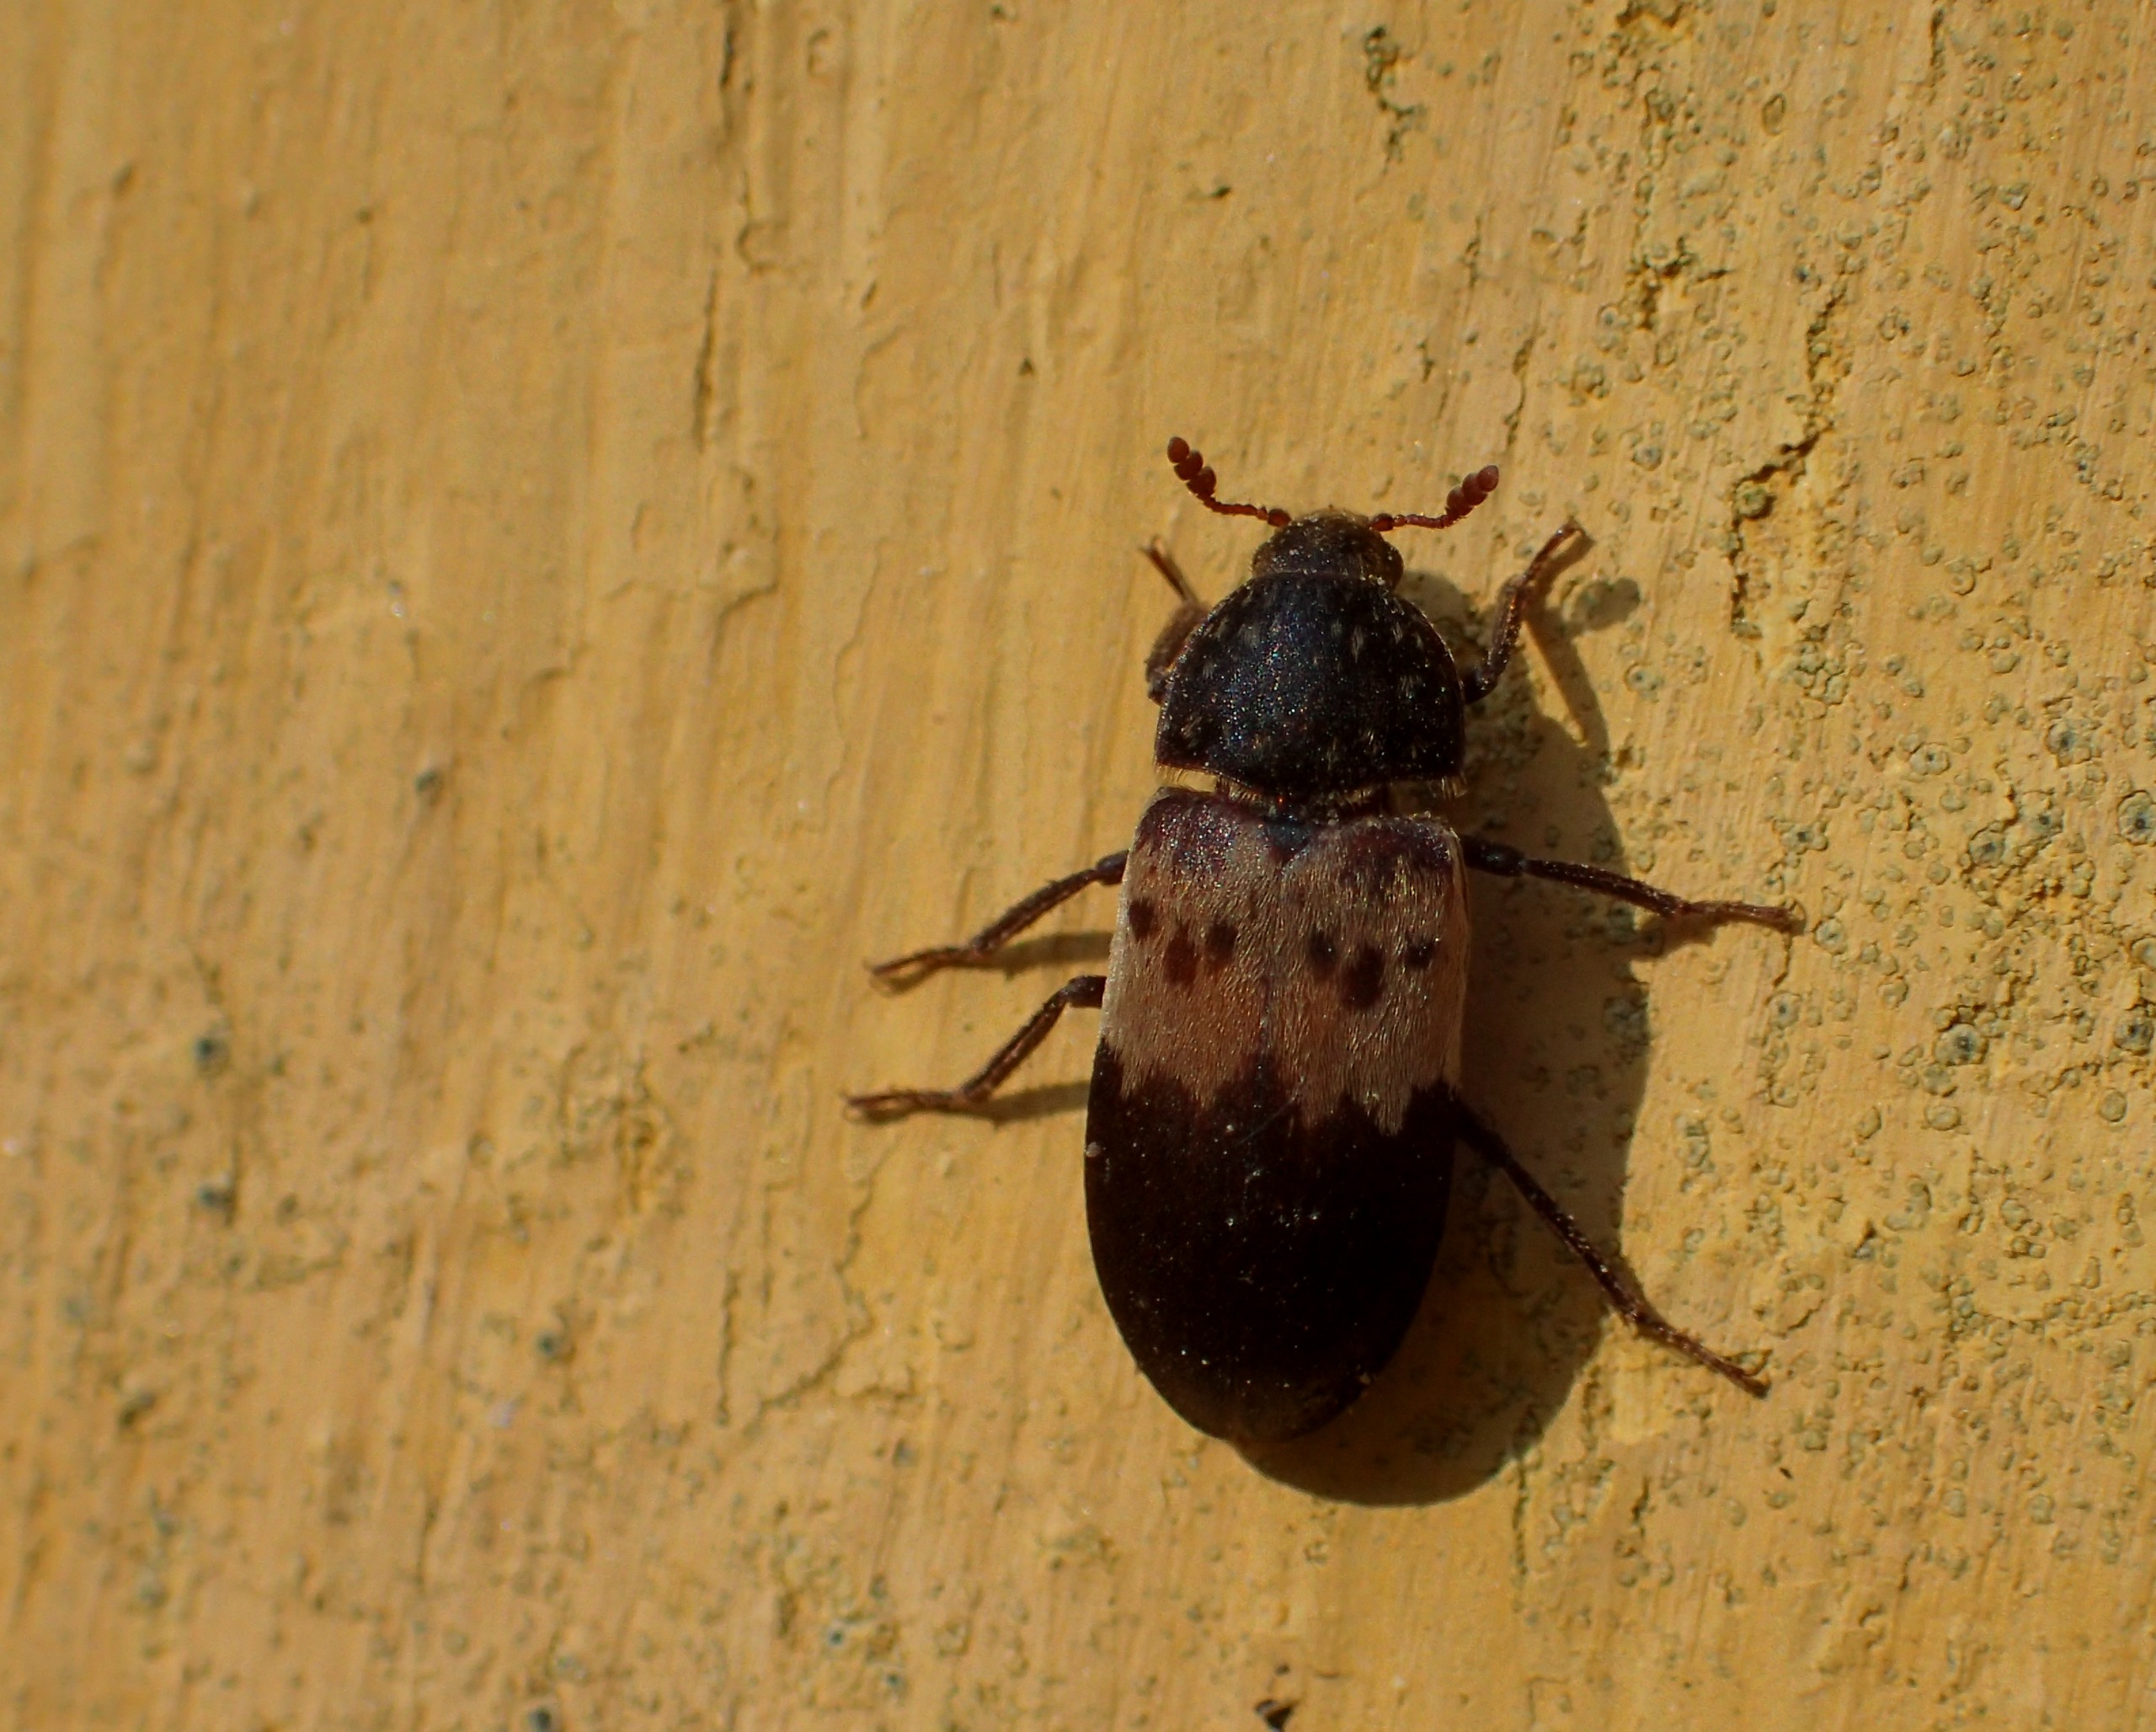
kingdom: Animalia
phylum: Arthropoda
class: Insecta
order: Coleoptera
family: Dermestidae
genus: Dermestes
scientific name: Dermestes lardarius
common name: Flæskeklanner
